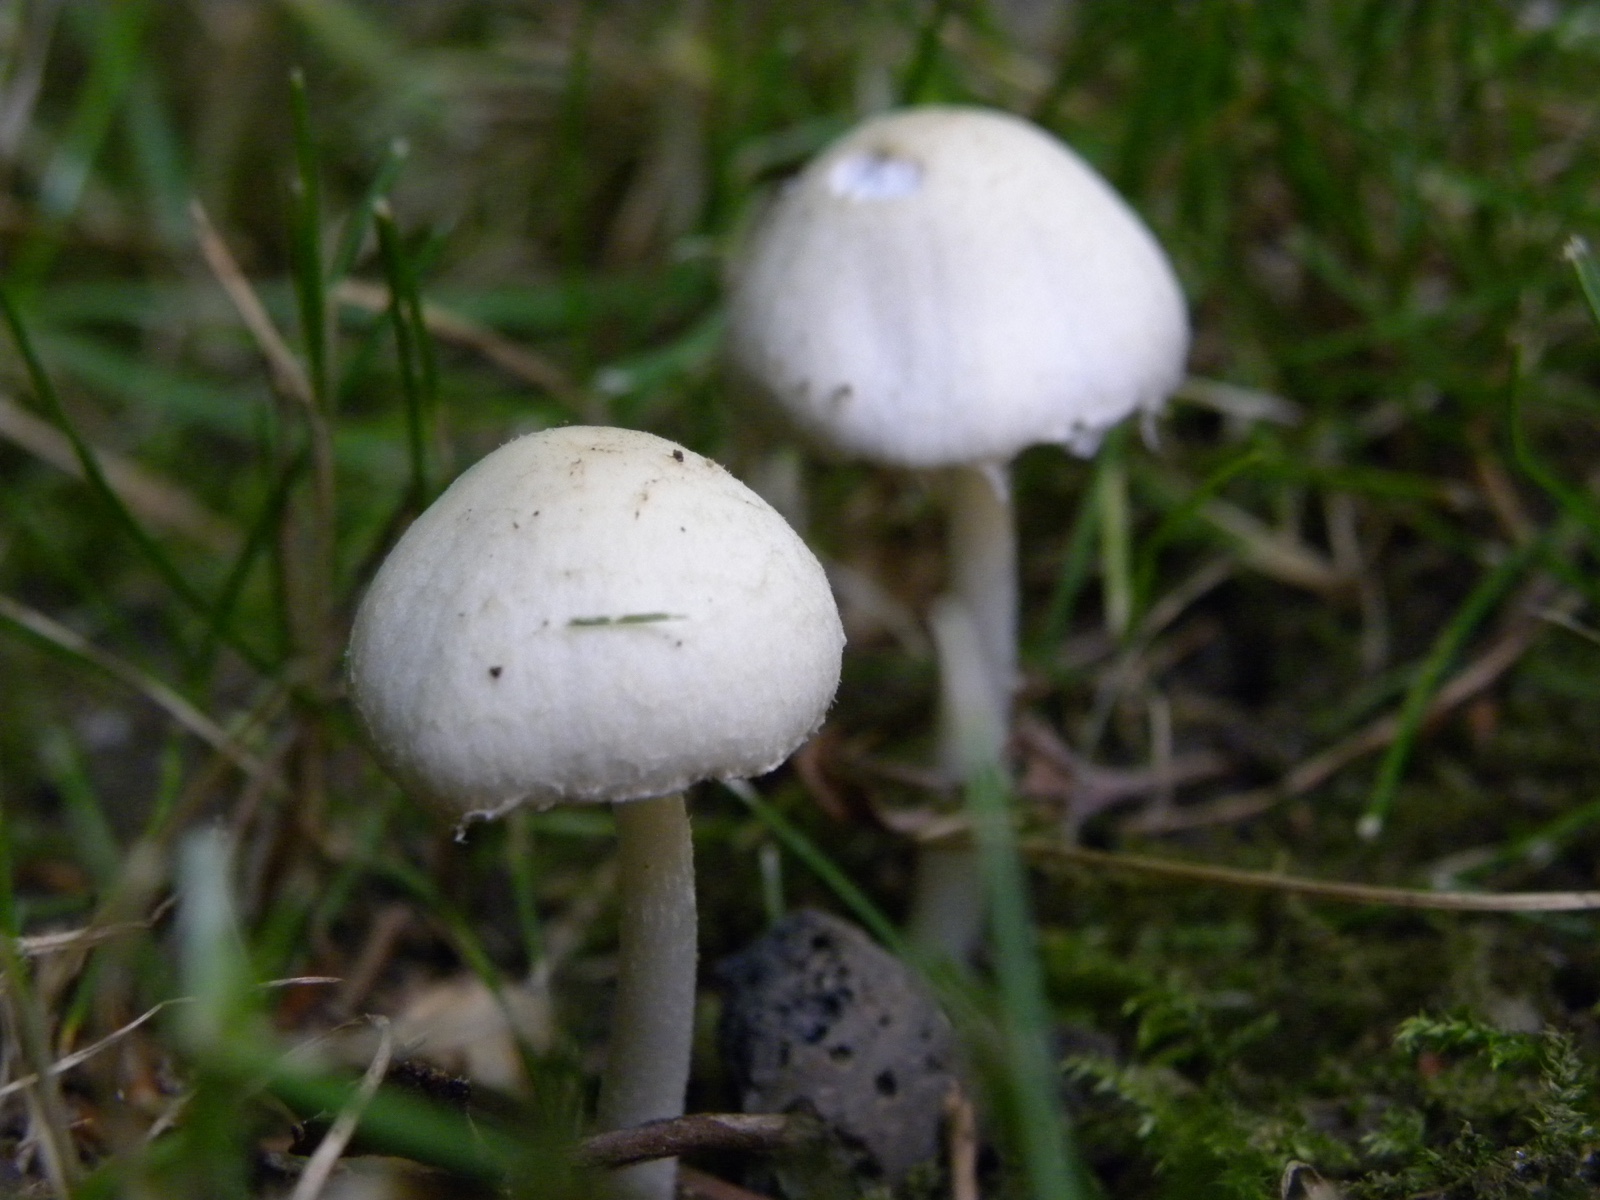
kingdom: Fungi
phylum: Basidiomycota
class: Agaricomycetes
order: Agaricales
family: Psathyrellaceae
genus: Candolleomyces
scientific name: Candolleomyces candolleanus
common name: Candolles mørkhat
